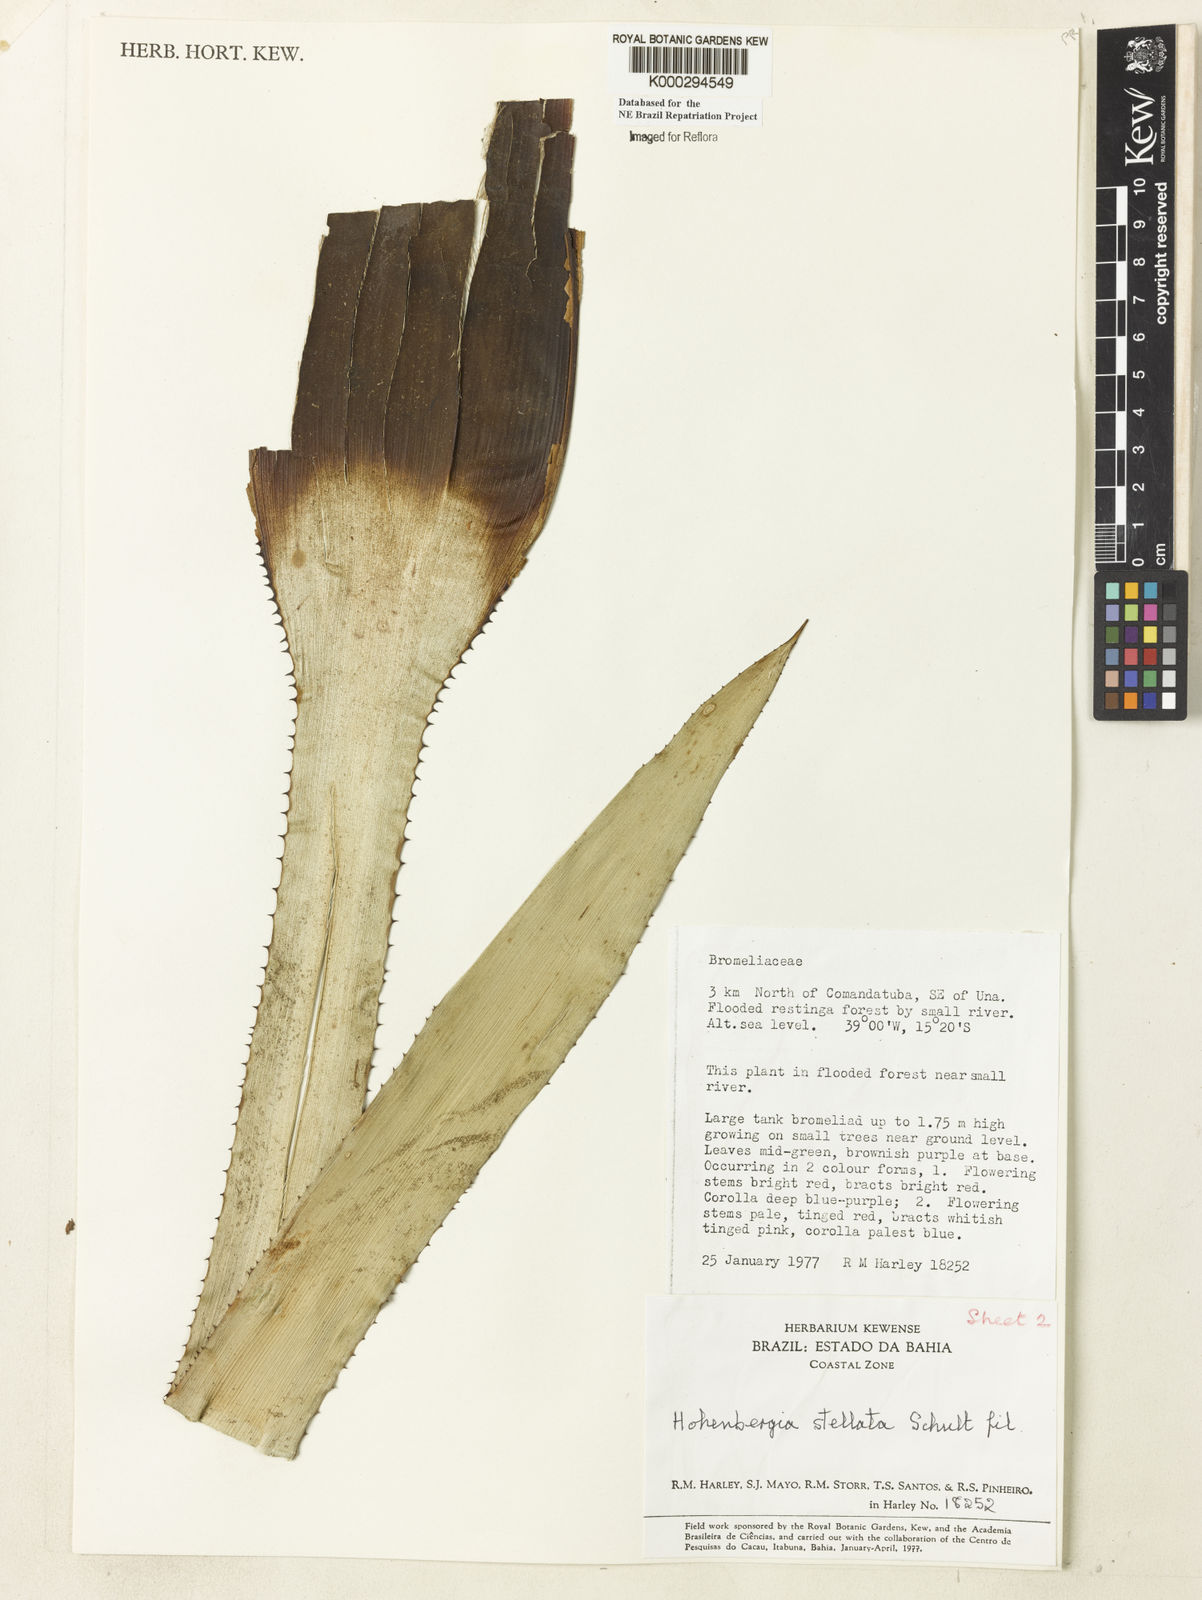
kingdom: Plantae
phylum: Tracheophyta
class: Liliopsida
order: Poales
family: Bromeliaceae
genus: Hohenbergia
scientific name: Hohenbergia stellata
